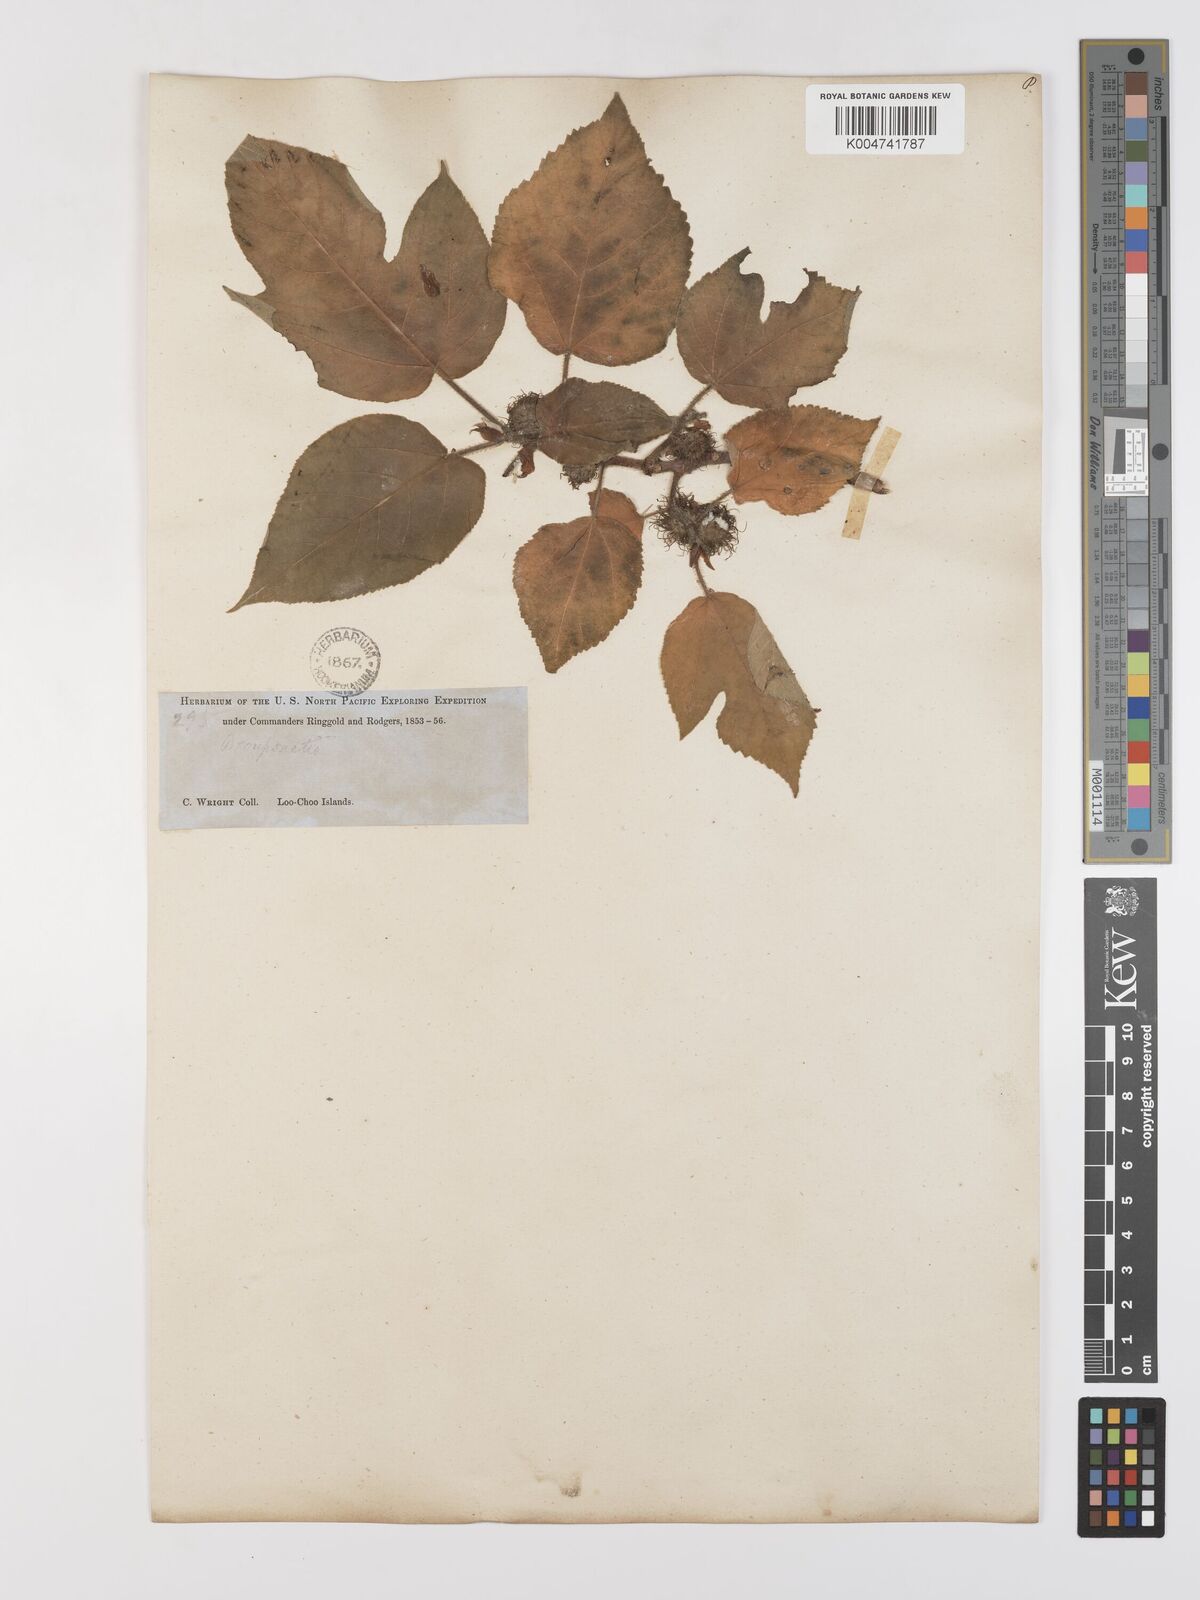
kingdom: Plantae
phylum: Tracheophyta
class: Magnoliopsida
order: Rosales
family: Moraceae
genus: Broussonetia
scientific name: Broussonetia papyrifera
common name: Paper mulberry
